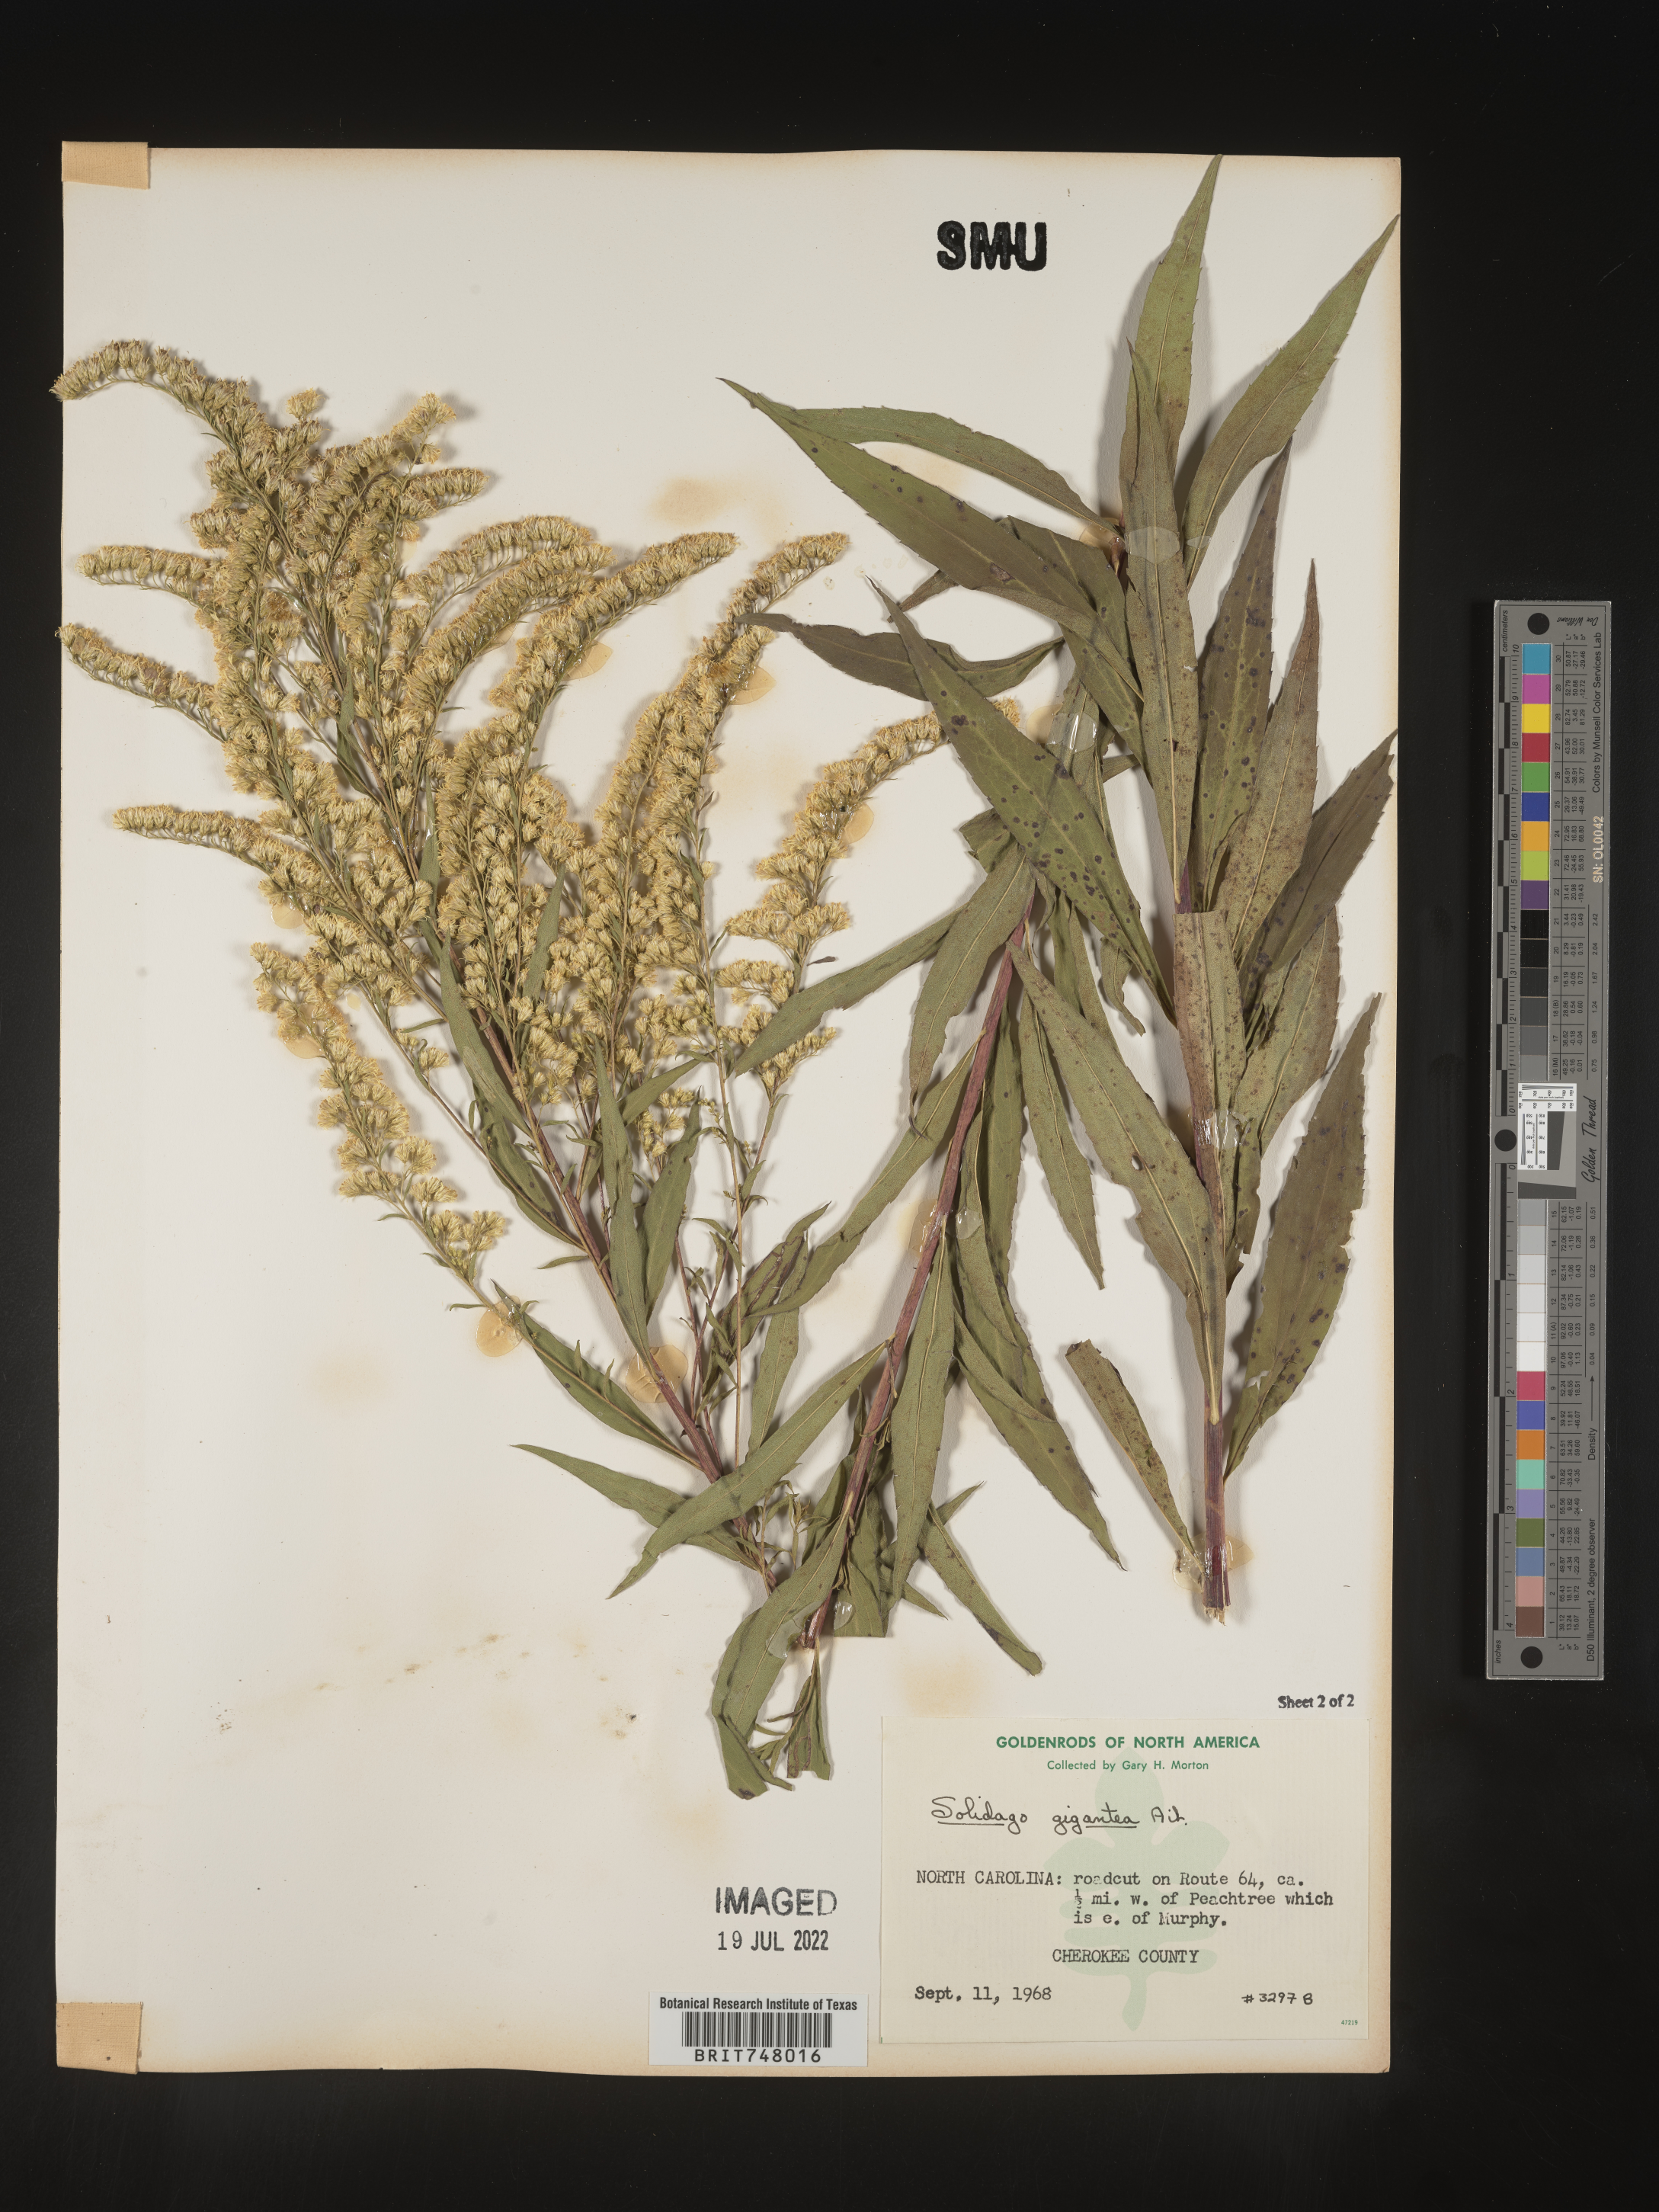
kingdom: Plantae
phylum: Tracheophyta
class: Magnoliopsida
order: Asterales
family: Asteraceae
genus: Solidago
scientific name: Solidago gigantea
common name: Giant goldenrod
